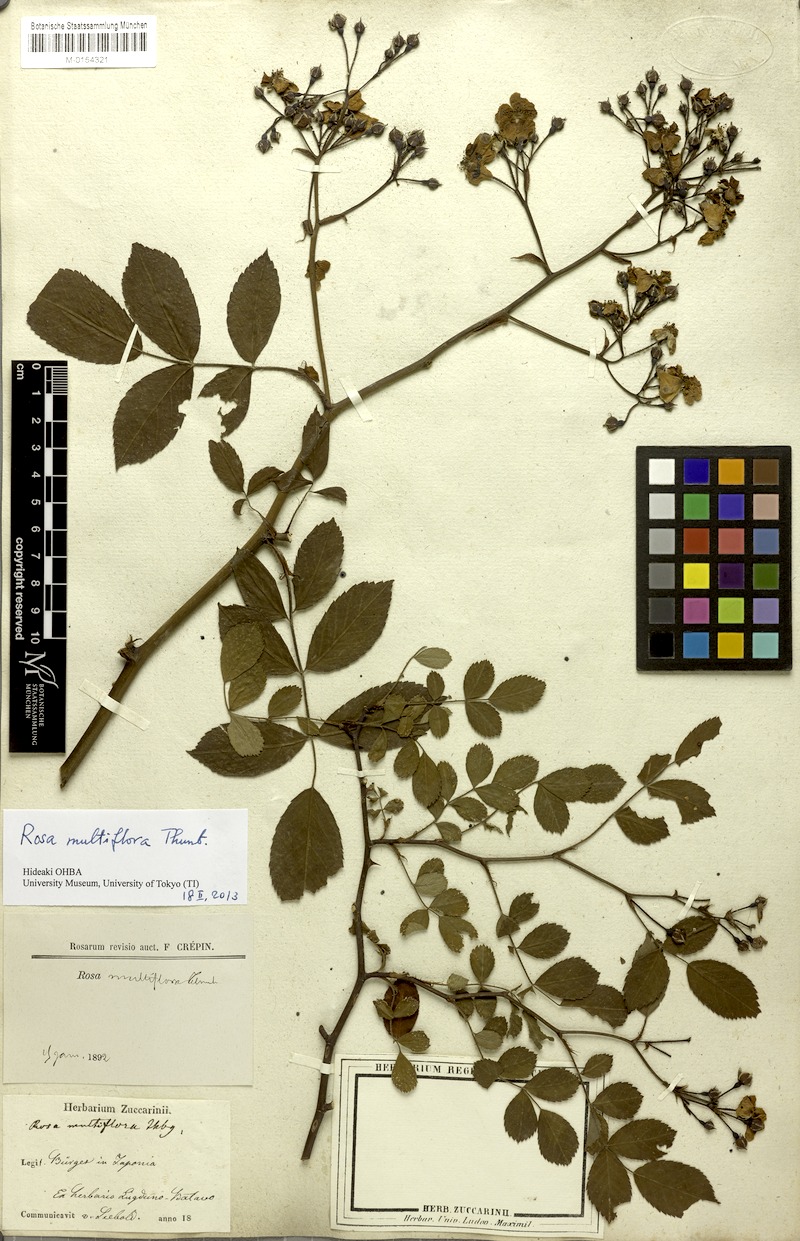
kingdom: Plantae
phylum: Tracheophyta
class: Magnoliopsida
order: Rosales
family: Rosaceae
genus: Rosa
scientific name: Rosa multiflora
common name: Multiflora rose
